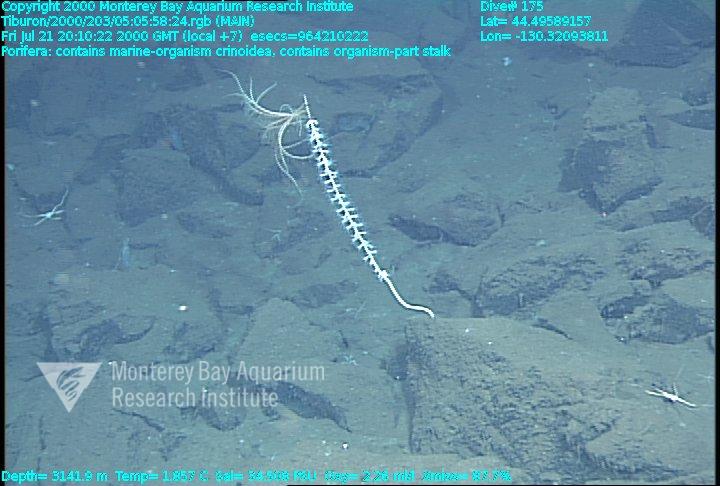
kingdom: Animalia
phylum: Porifera
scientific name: Porifera
